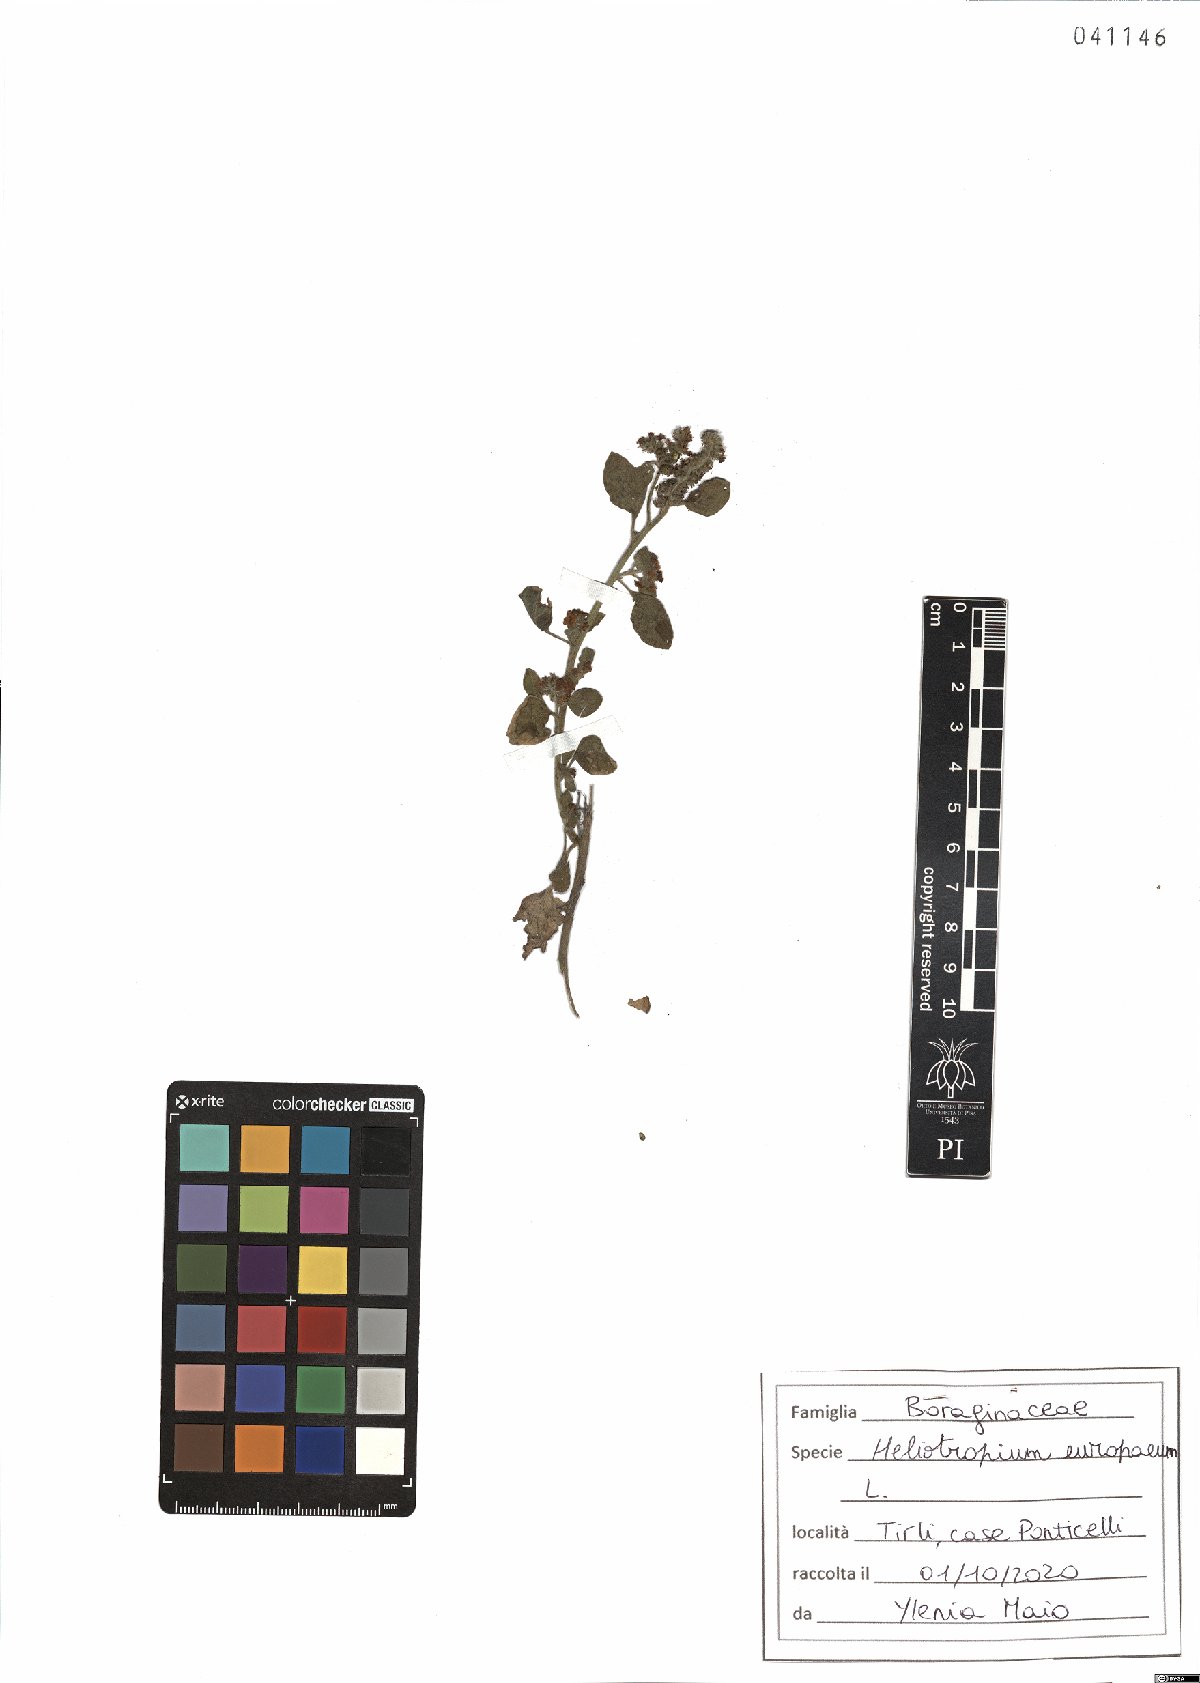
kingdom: Plantae
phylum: Tracheophyta
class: Magnoliopsida
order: Boraginales
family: Heliotropiaceae
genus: Heliotropium
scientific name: Heliotropium europaeum
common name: European heliotrope
